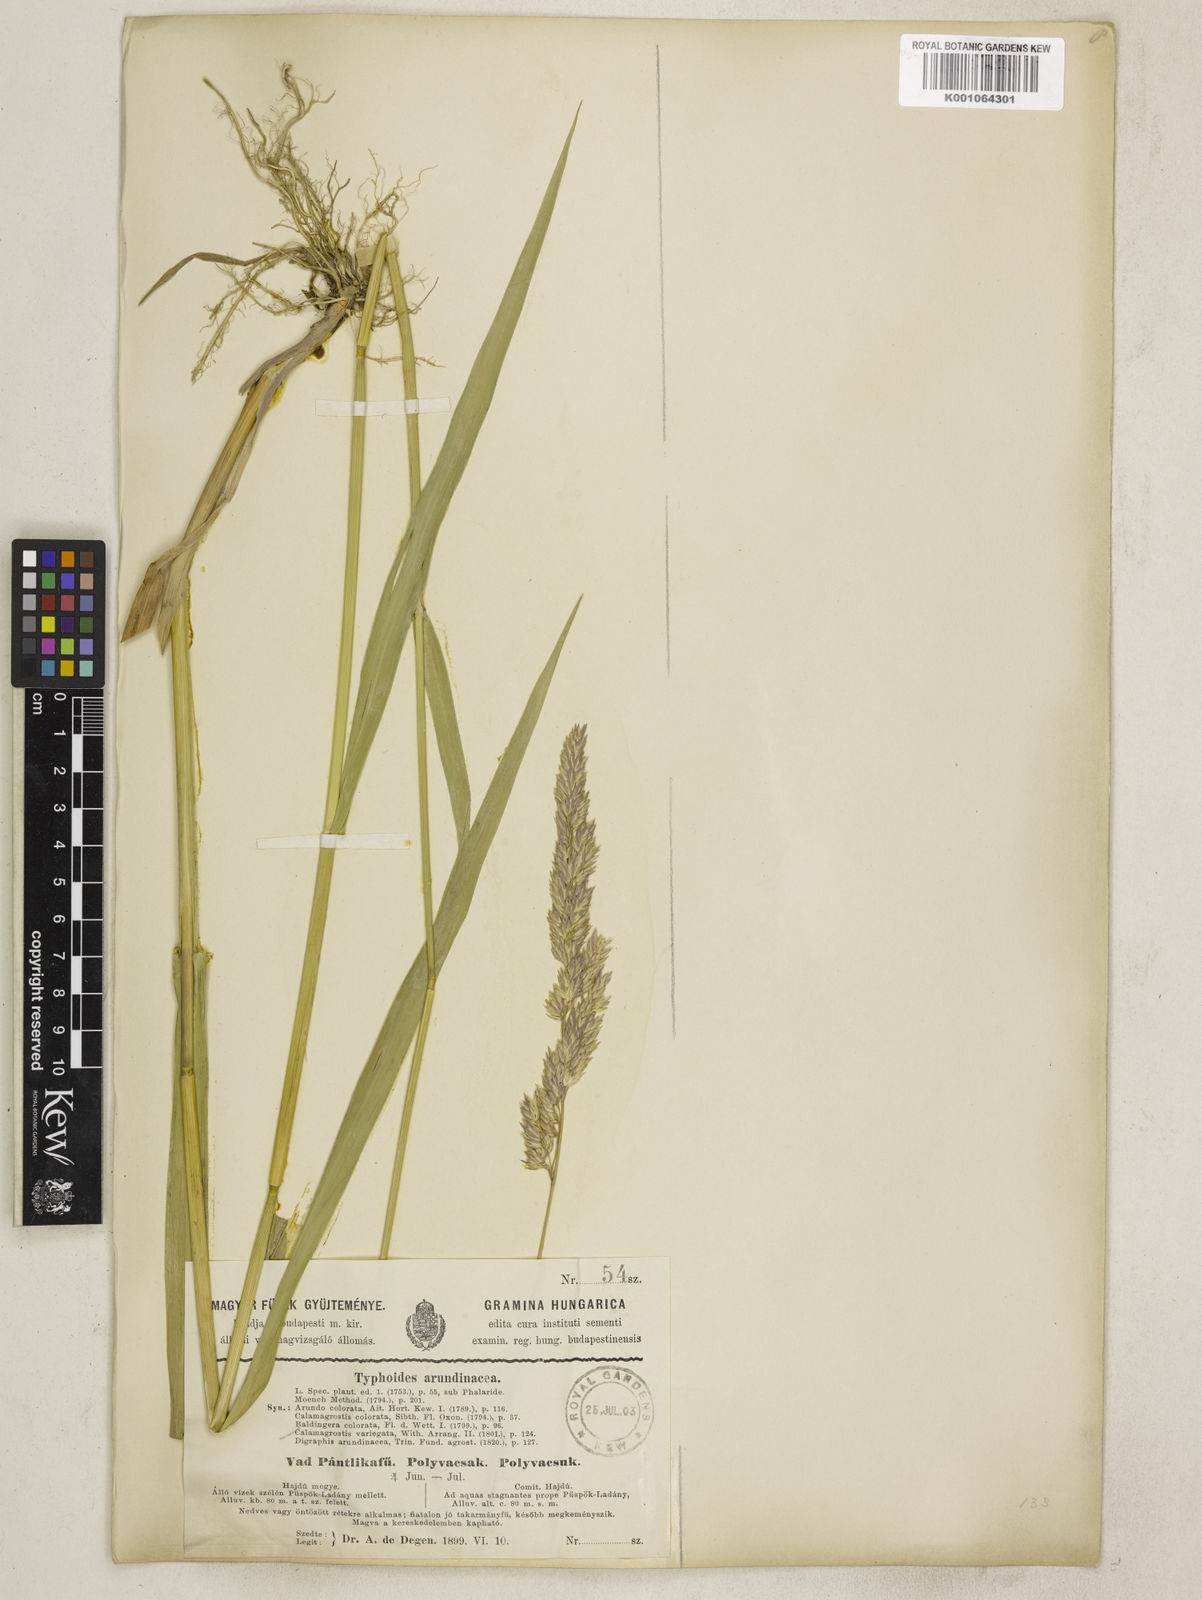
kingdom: Plantae
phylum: Tracheophyta
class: Liliopsida
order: Poales
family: Poaceae
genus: Phalaris
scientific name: Phalaris arundinacea
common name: Reed canary-grass
